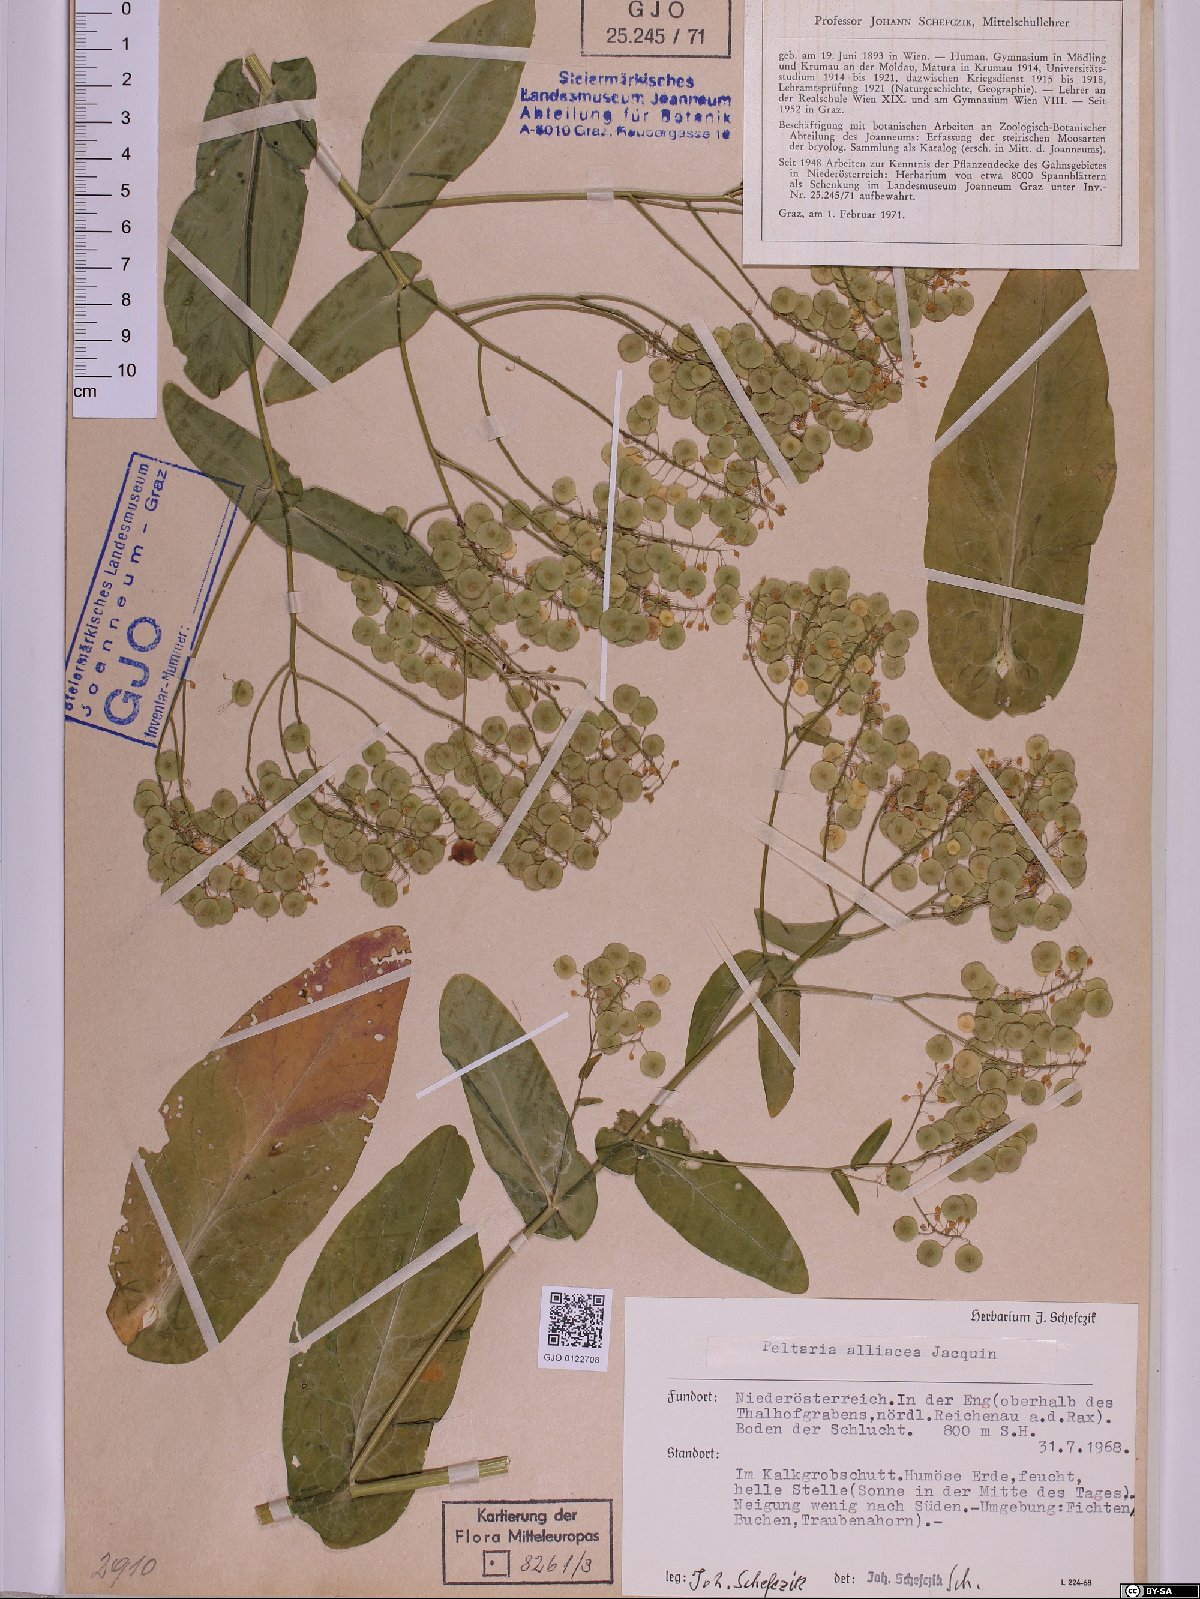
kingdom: Plantae
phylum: Tracheophyta
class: Magnoliopsida
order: Brassicales
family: Brassicaceae
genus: Peltaria
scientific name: Peltaria alliacea
